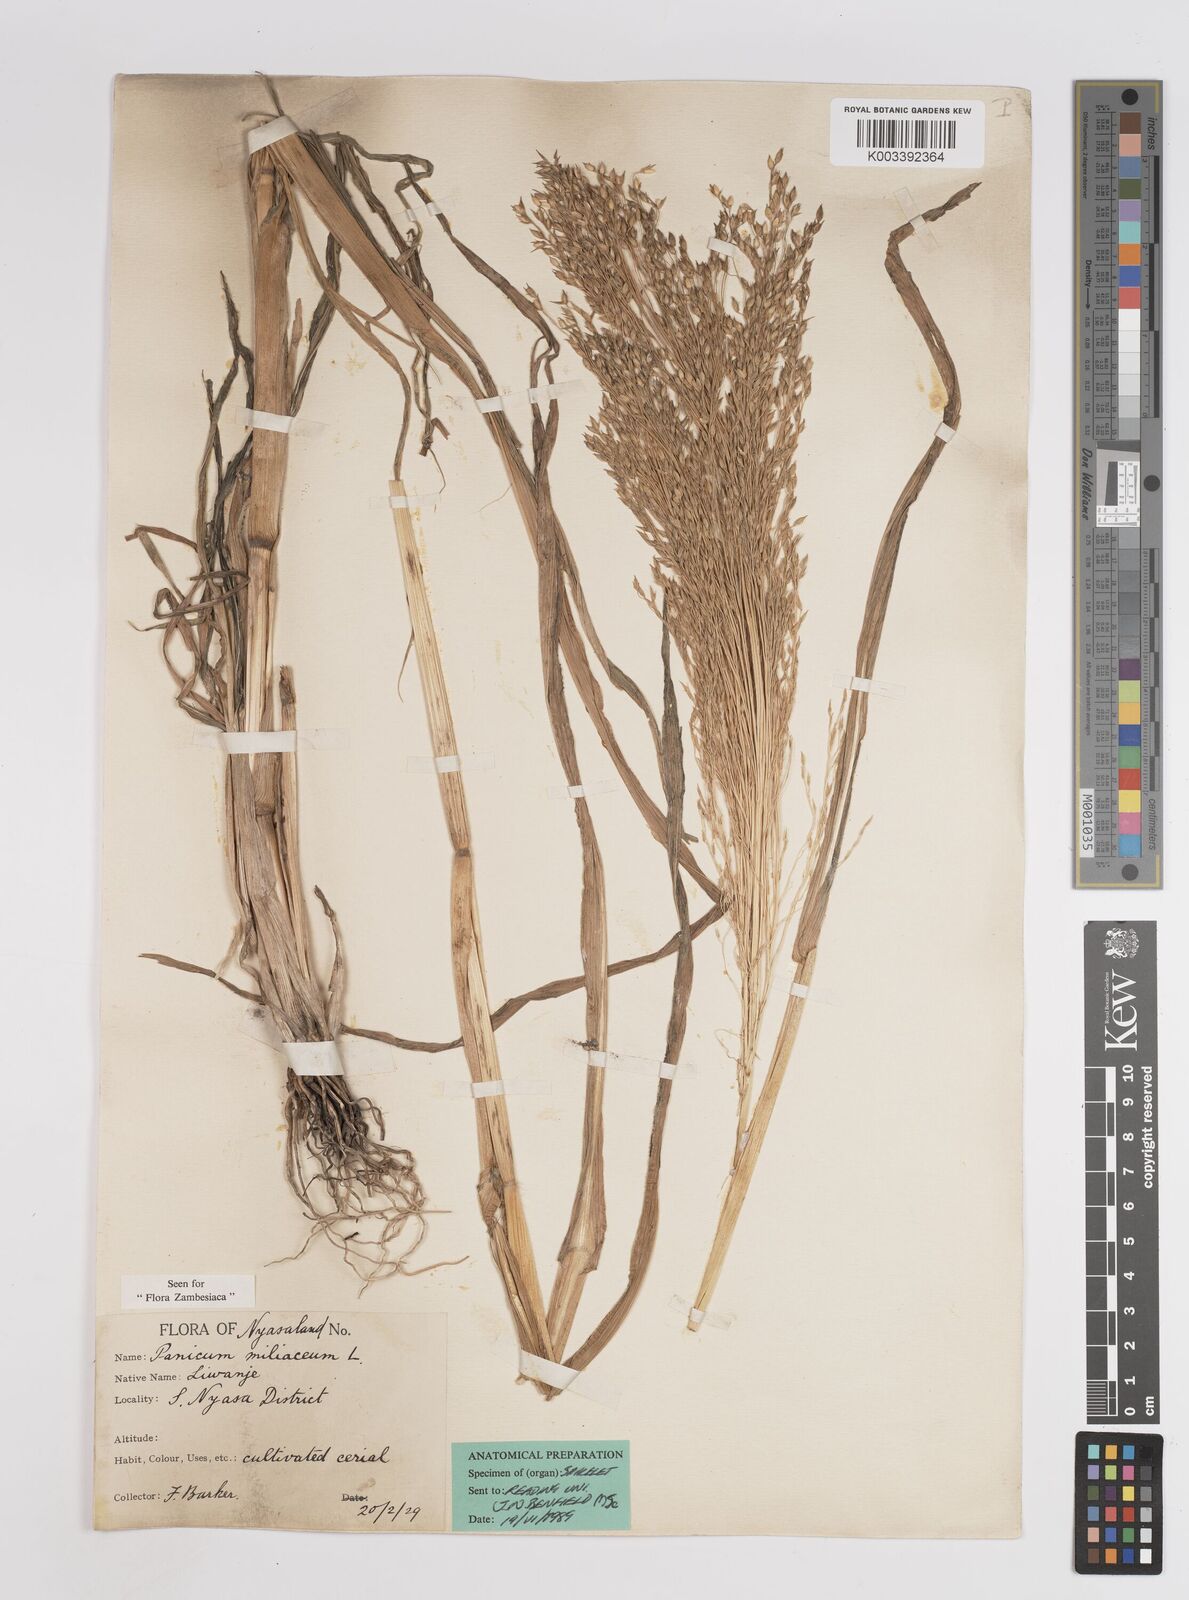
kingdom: Plantae
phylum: Tracheophyta
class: Liliopsida
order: Poales
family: Poaceae
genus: Panicum
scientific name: Panicum miliaceum
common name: Common millet
